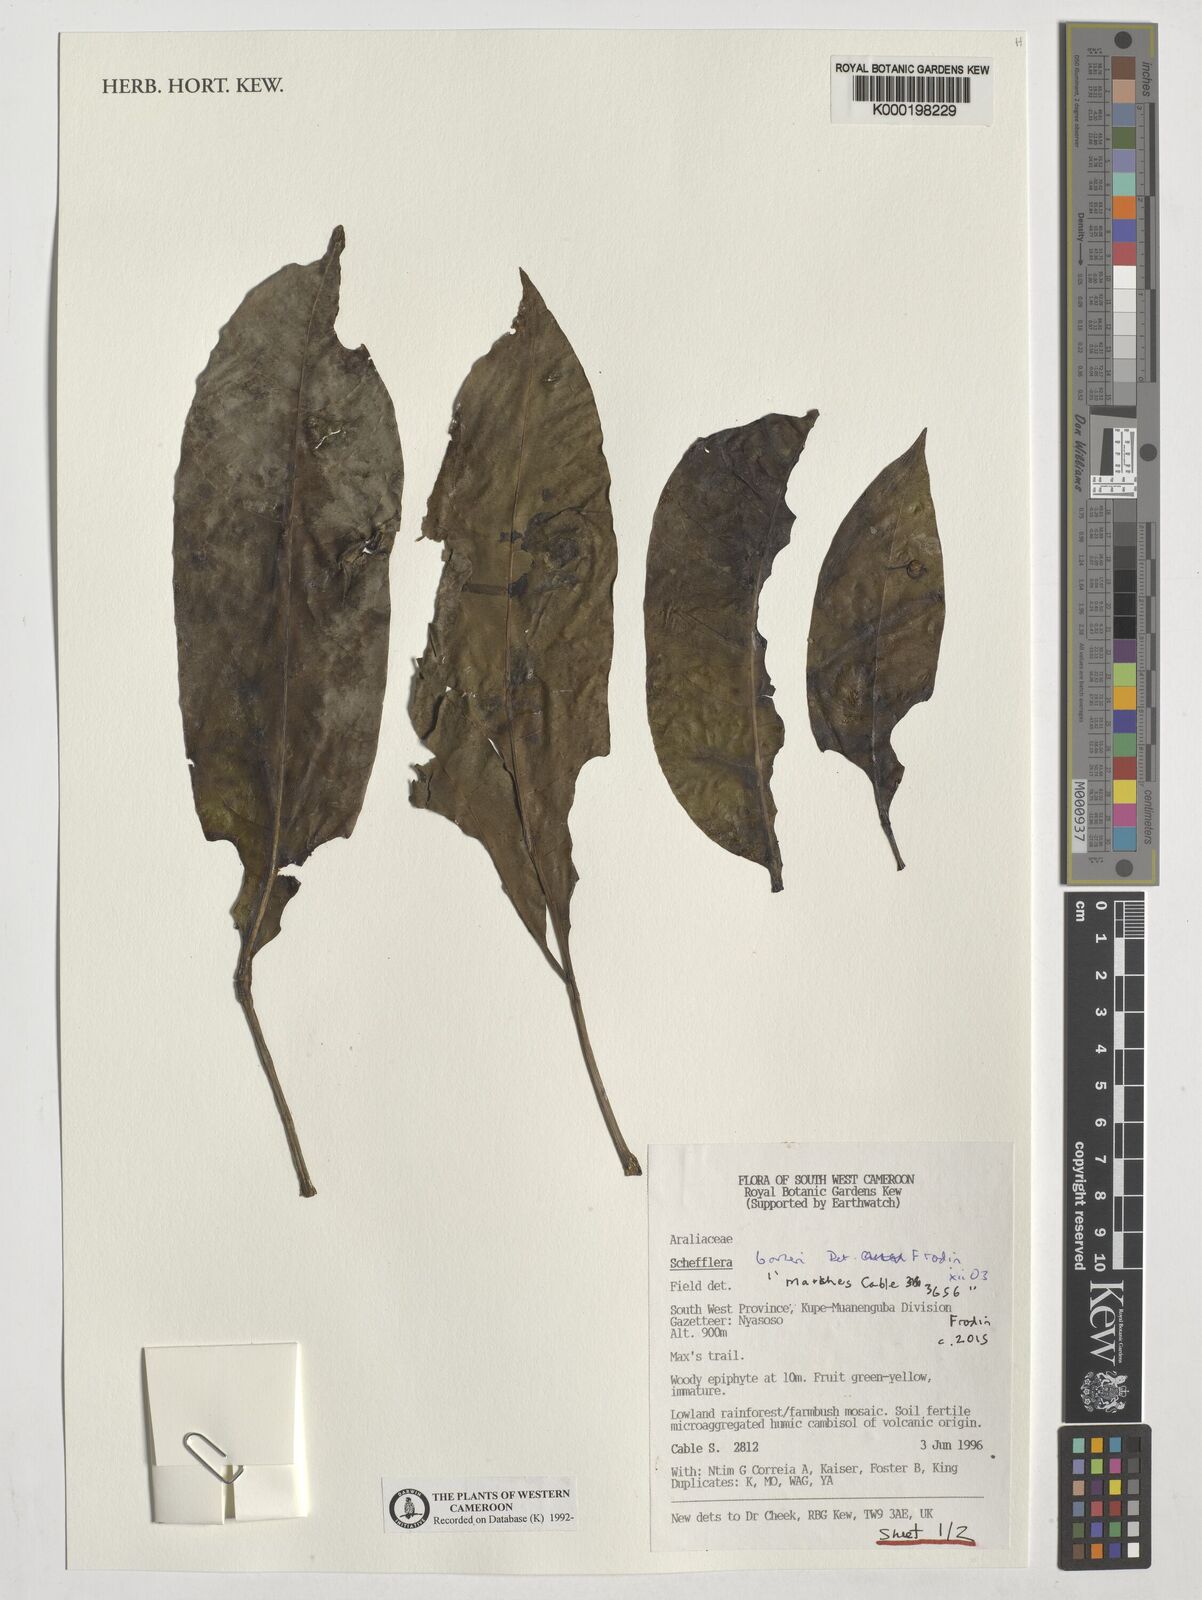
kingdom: Plantae
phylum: Tracheophyta
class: Magnoliopsida
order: Apiales
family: Araliaceae
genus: Astropanax
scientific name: Astropanax barteri
